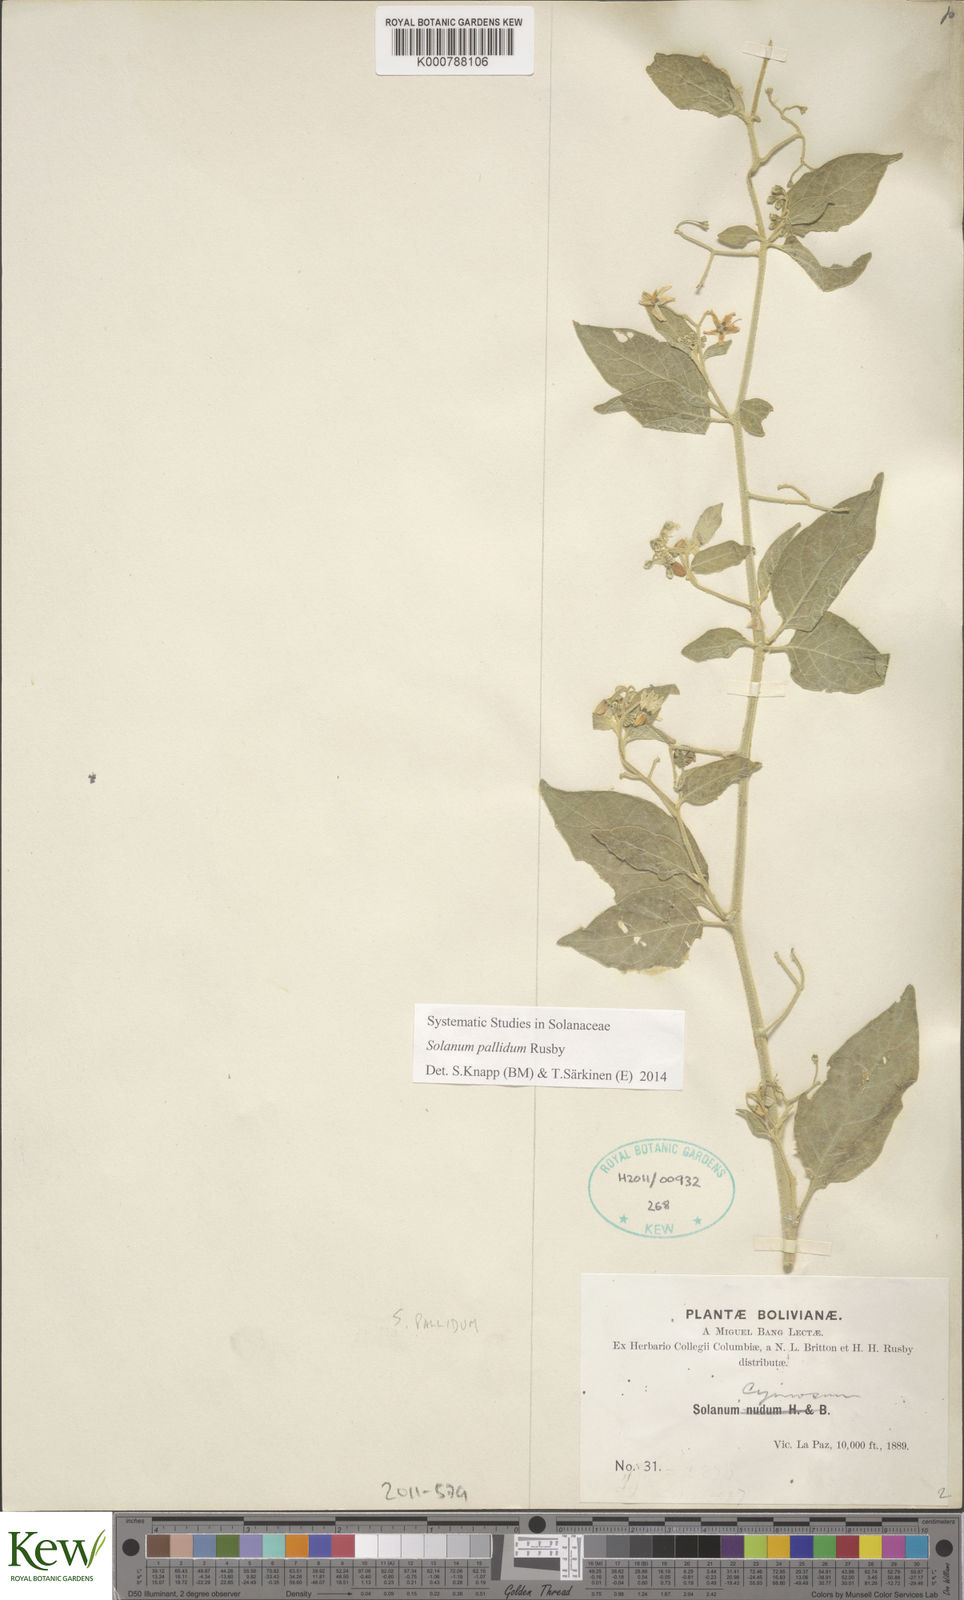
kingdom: Plantae
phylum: Tracheophyta
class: Magnoliopsida
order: Solanales
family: Solanaceae
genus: Solanum
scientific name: Solanum polytrichostylum
